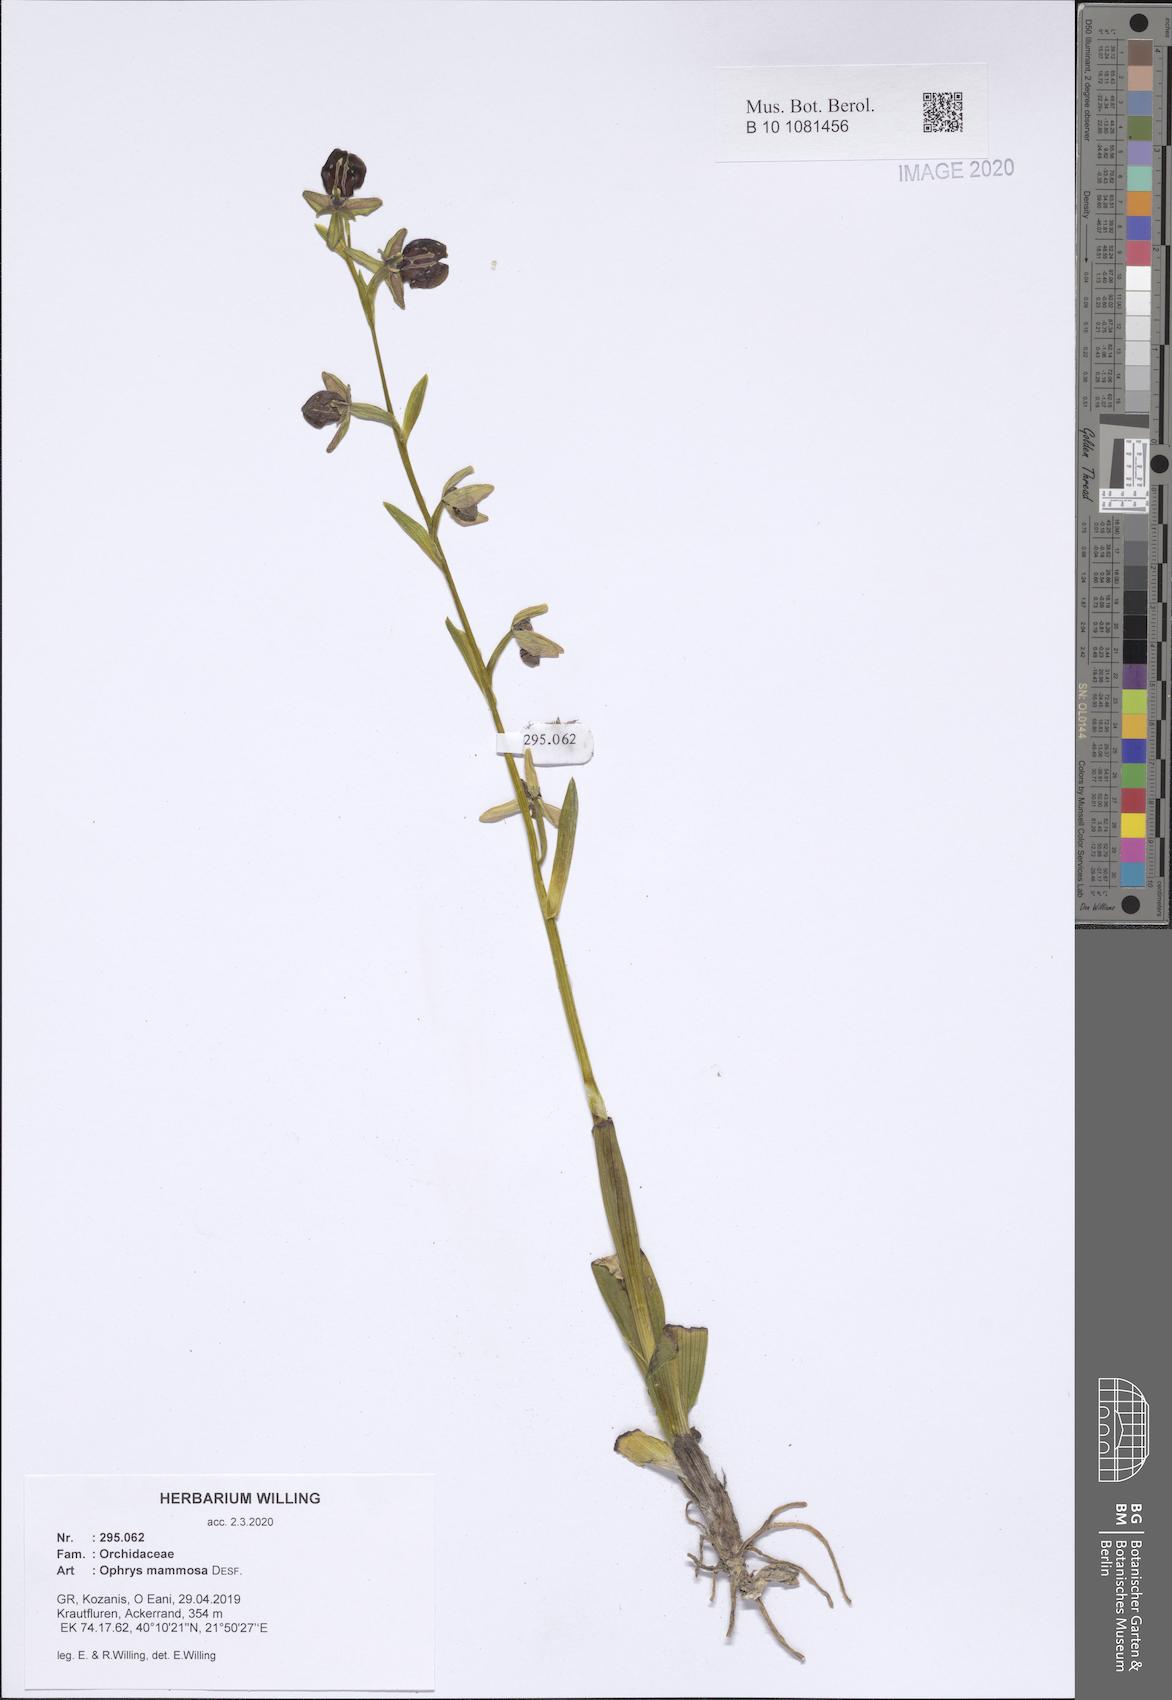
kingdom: Plantae
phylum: Tracheophyta
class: Liliopsida
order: Asparagales
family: Orchidaceae
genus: Ophrys
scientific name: Ophrys sphegodes
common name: Early spider-orchid
